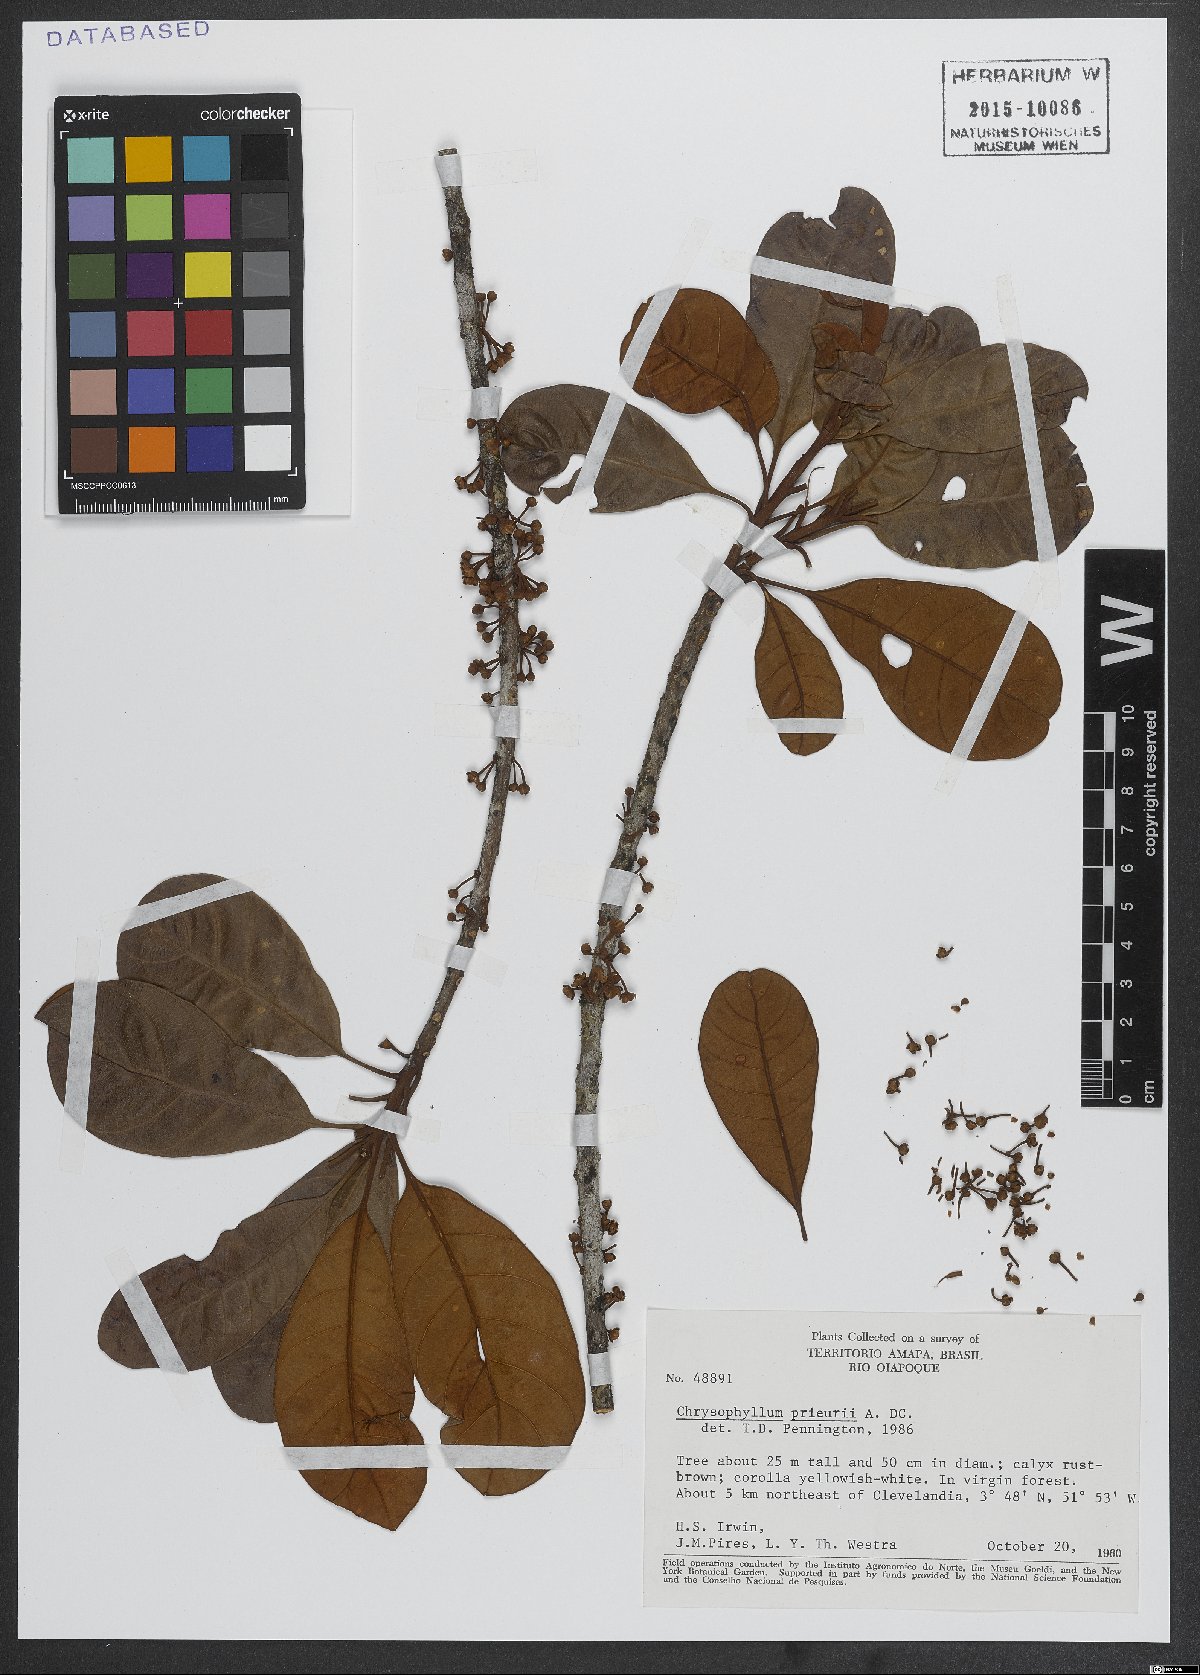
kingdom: Plantae
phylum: Tracheophyta
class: Magnoliopsida
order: Ericales
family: Sapotaceae
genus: Chrysophyllum
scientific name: Chrysophyllum prieurii
